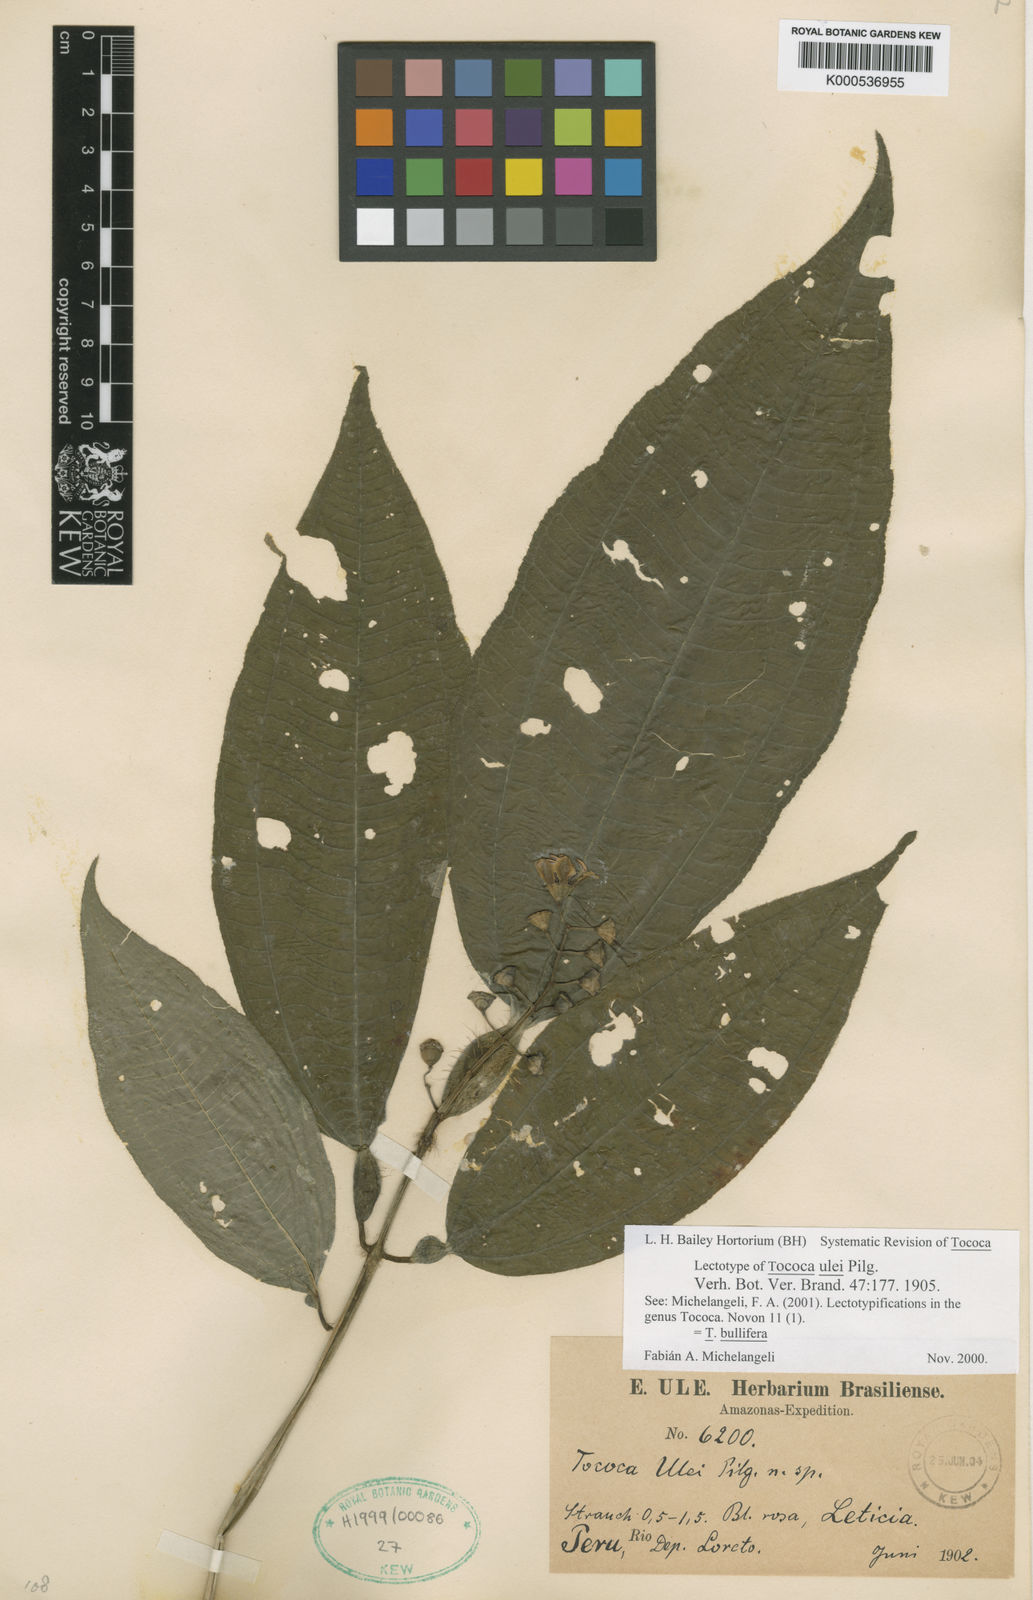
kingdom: Plantae
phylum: Tracheophyta
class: Magnoliopsida
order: Myrtales
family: Melastomataceae
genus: Miconia
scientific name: Miconia bullifera
